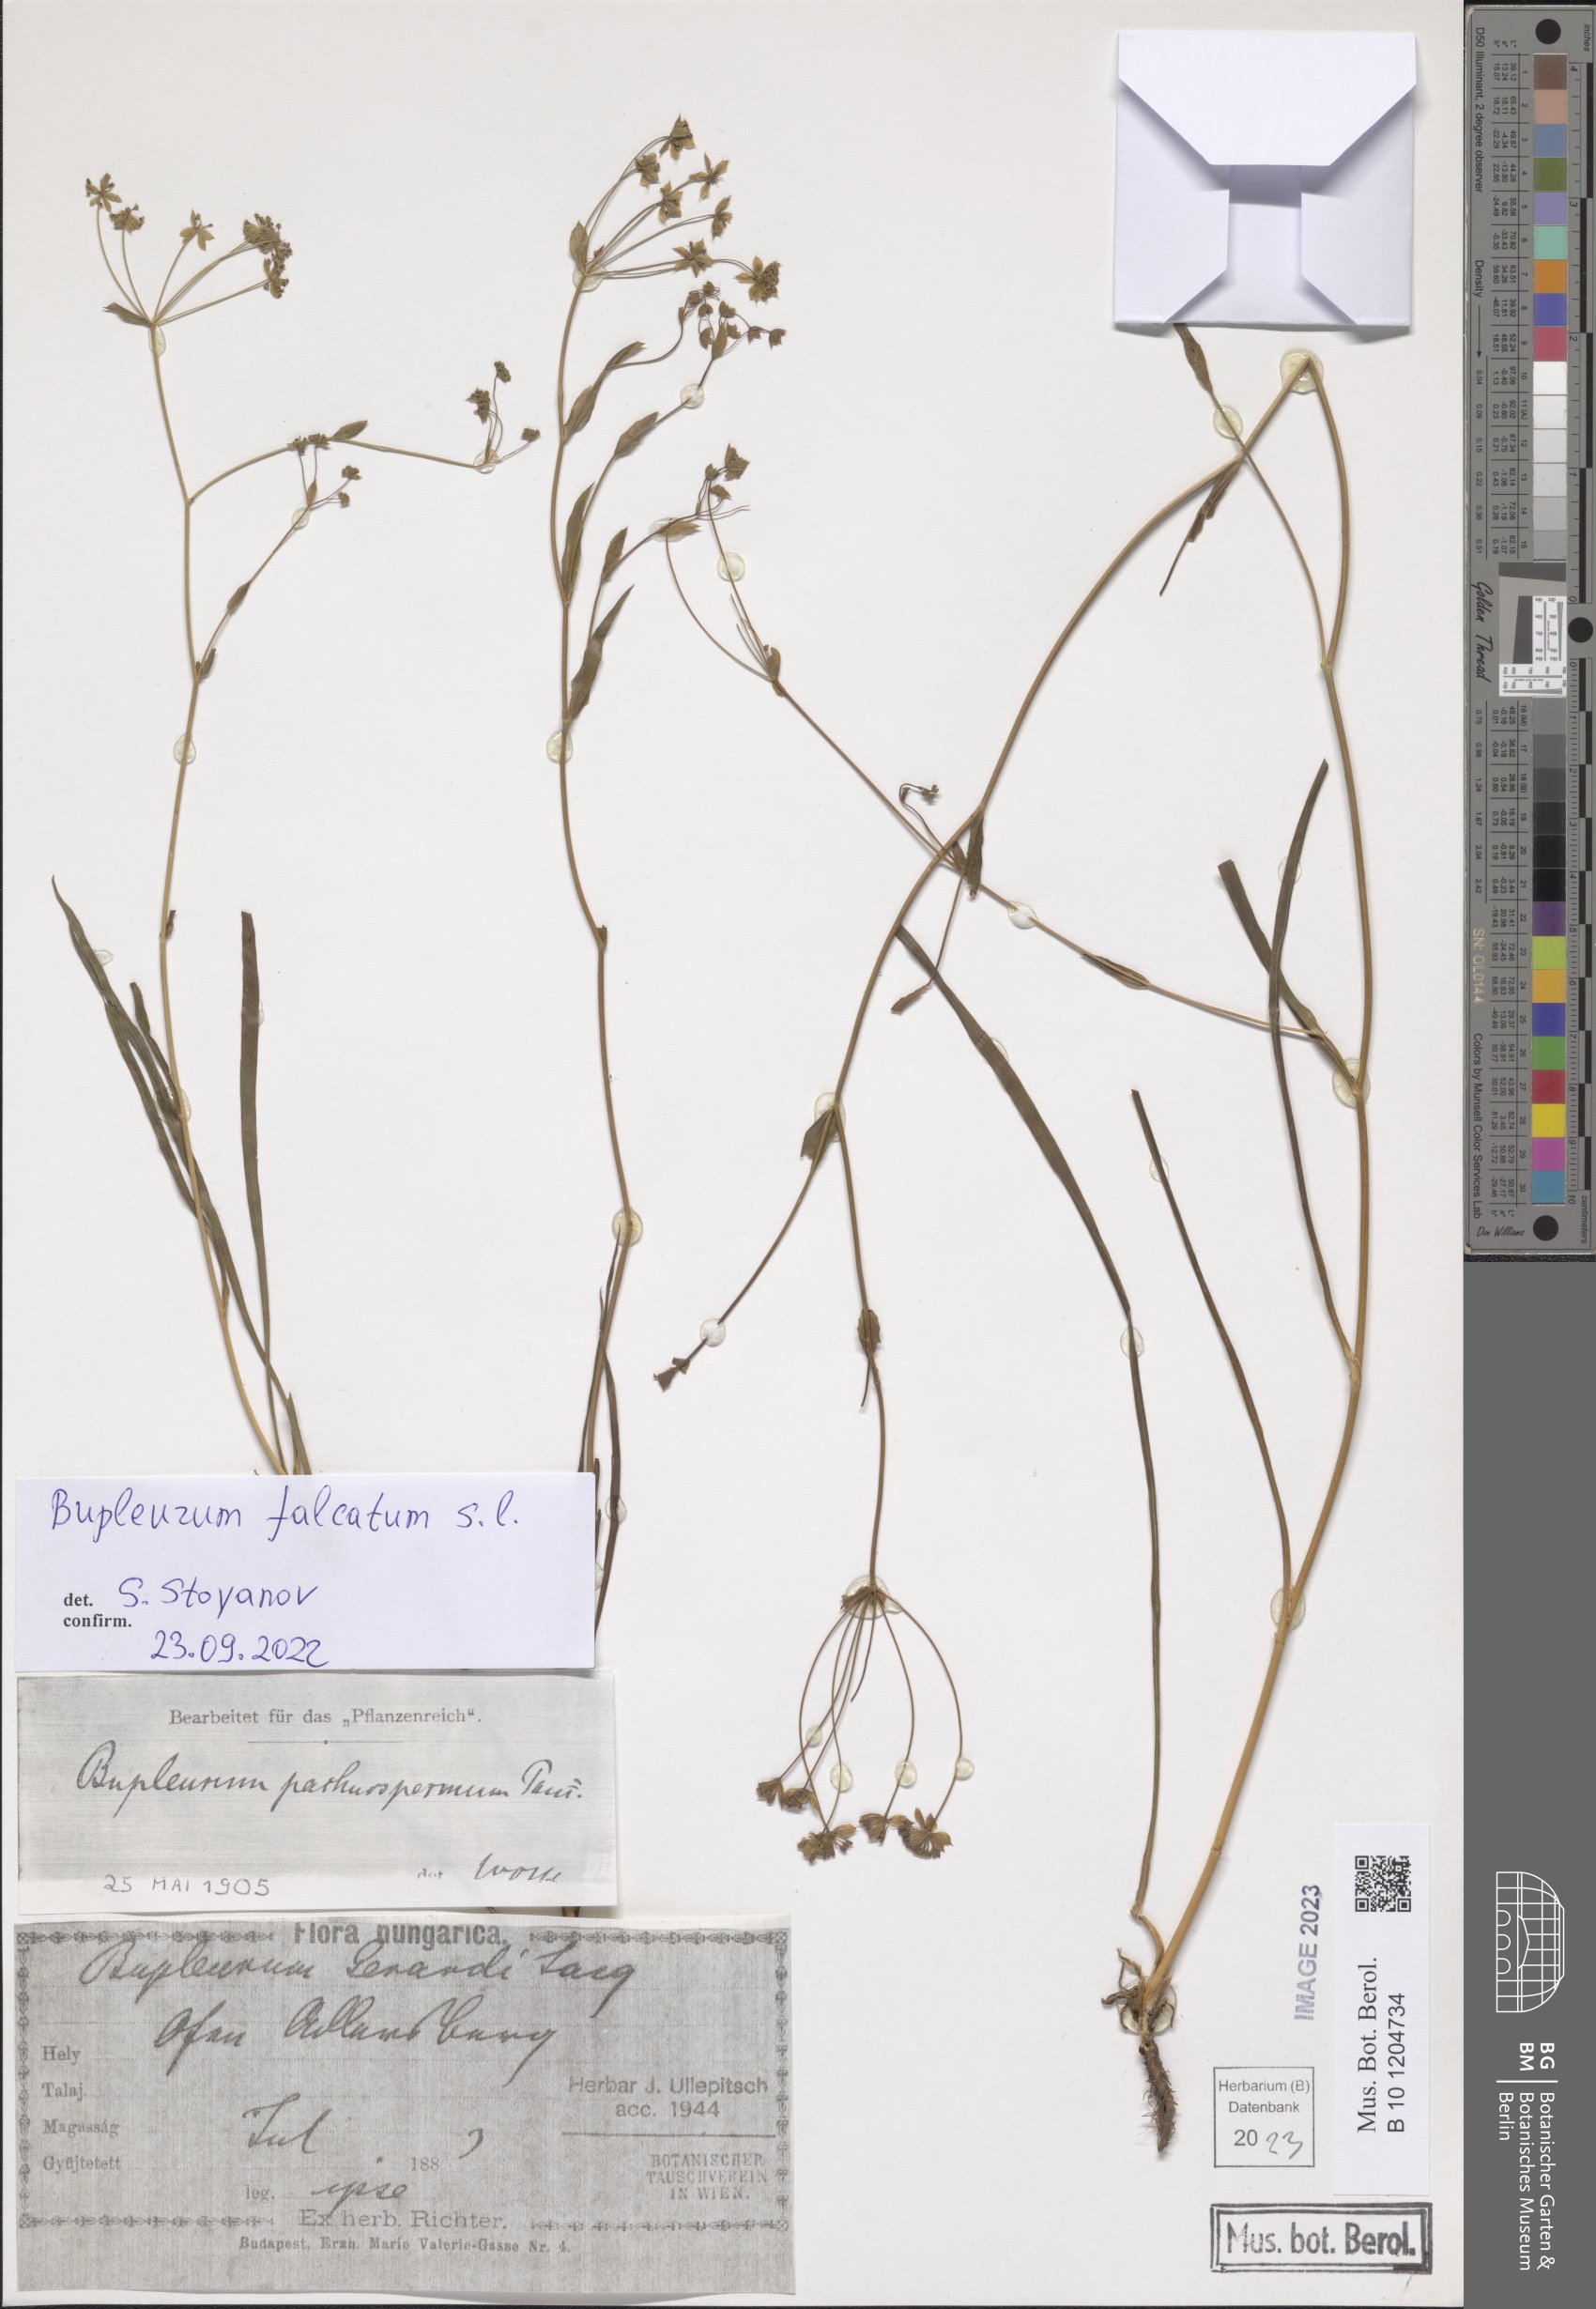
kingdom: Plantae
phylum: Tracheophyta
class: Magnoliopsida
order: Apiales
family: Apiaceae
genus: Bupleurum
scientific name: Bupleurum falcatum
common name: Sickle-leaved hare's-ear
